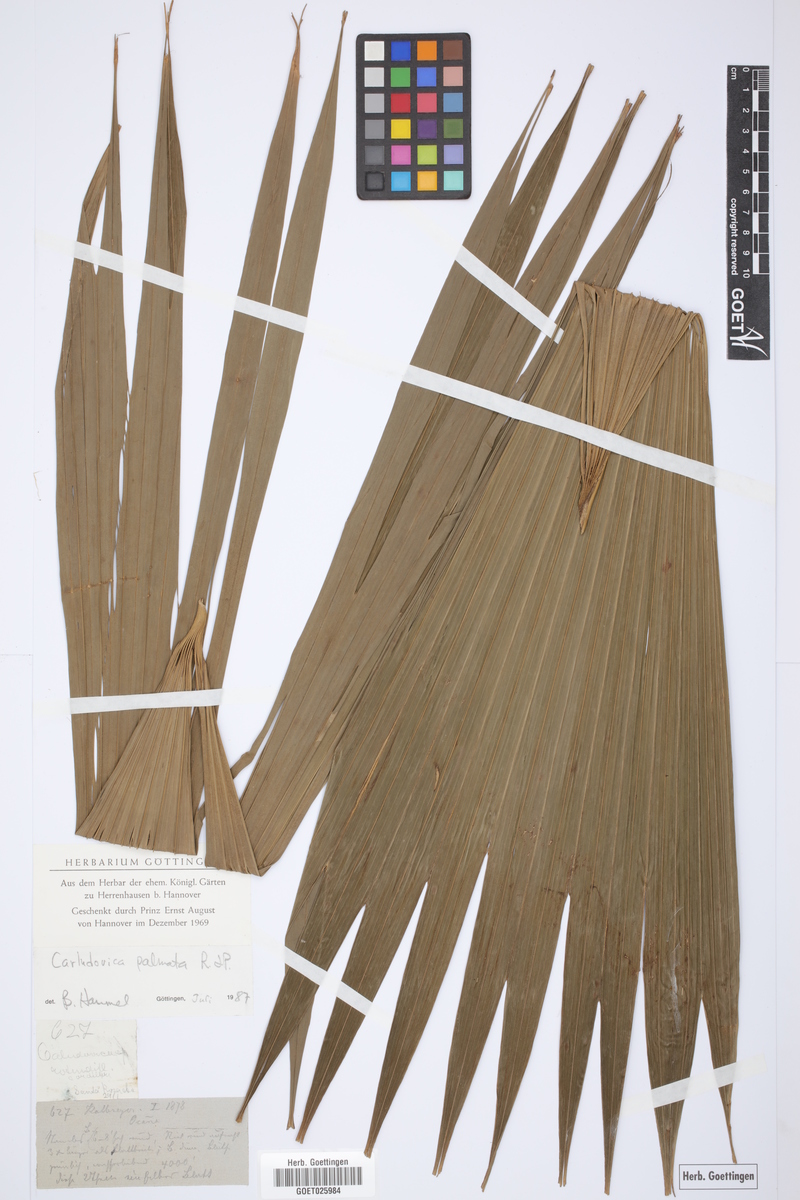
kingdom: Plantae
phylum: Tracheophyta
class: Liliopsida
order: Pandanales
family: Cyclanthaceae
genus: Carludovica
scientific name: Carludovica palmata
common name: Panama hat plant
